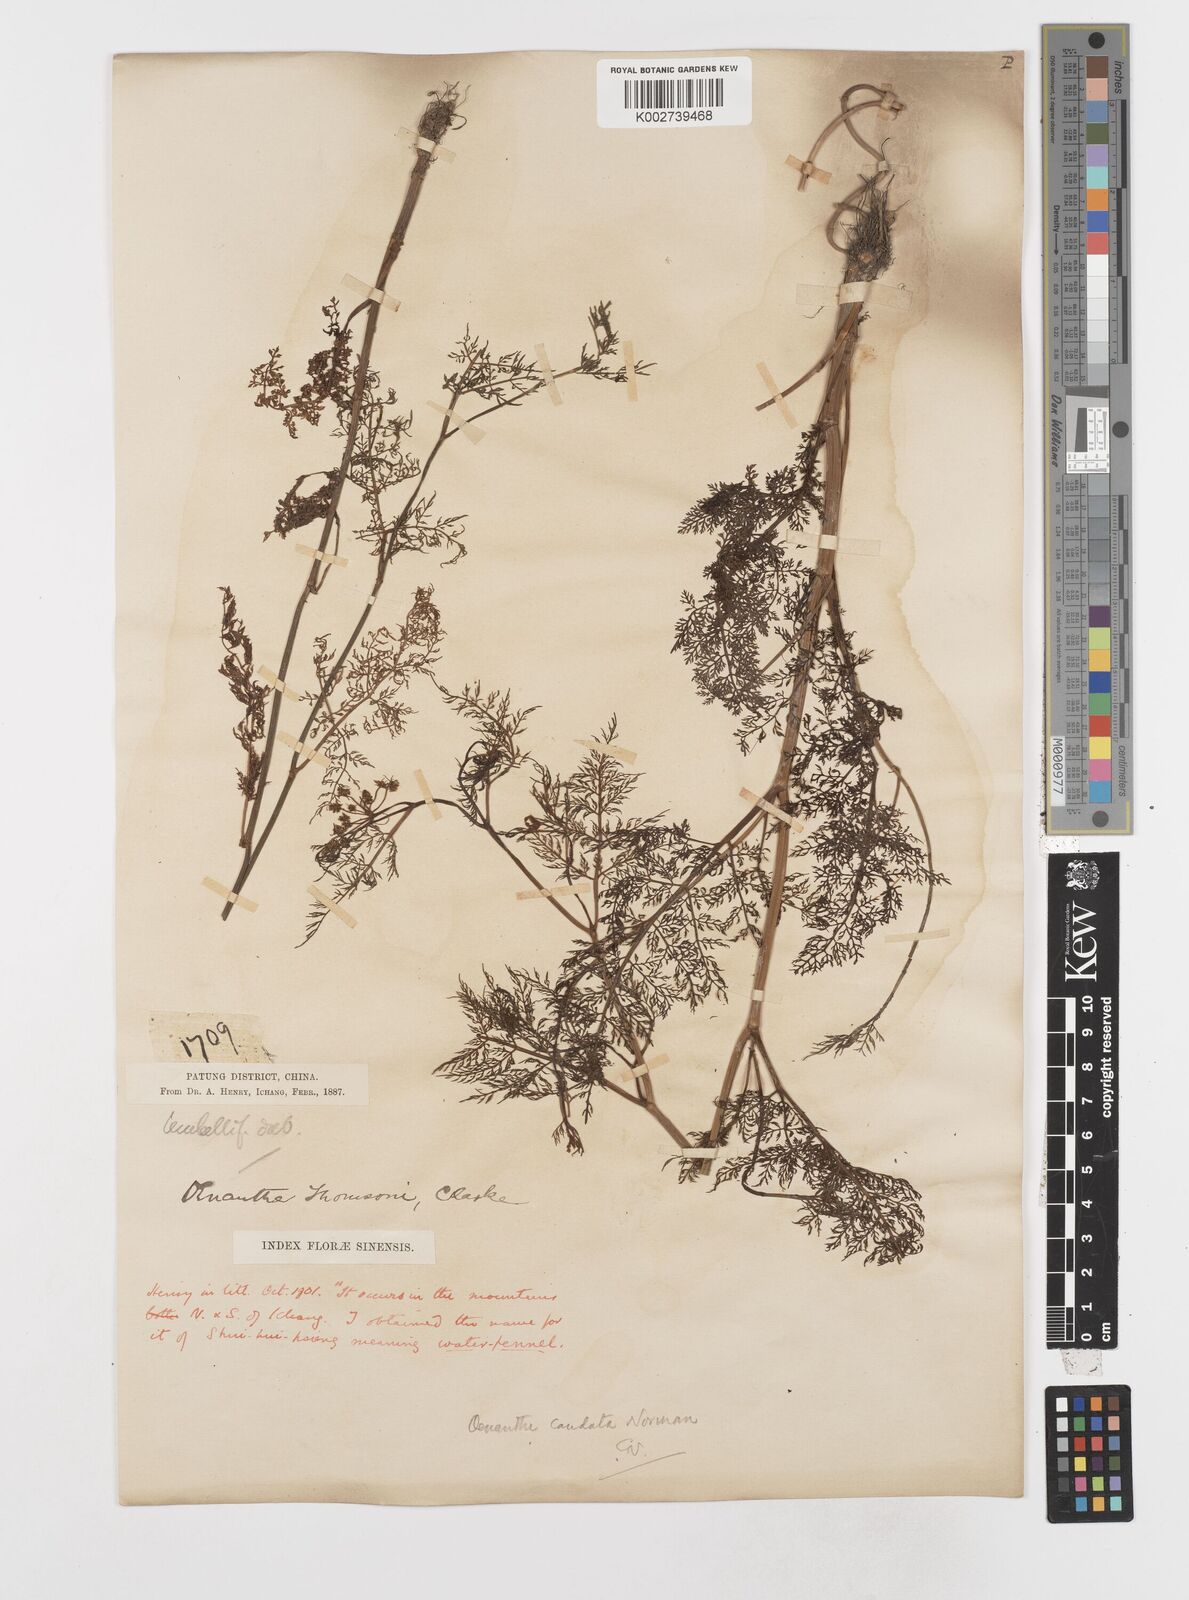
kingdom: Plantae
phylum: Tracheophyta
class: Magnoliopsida
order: Apiales
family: Apiaceae
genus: Oenanthe
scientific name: Oenanthe thomsonii
